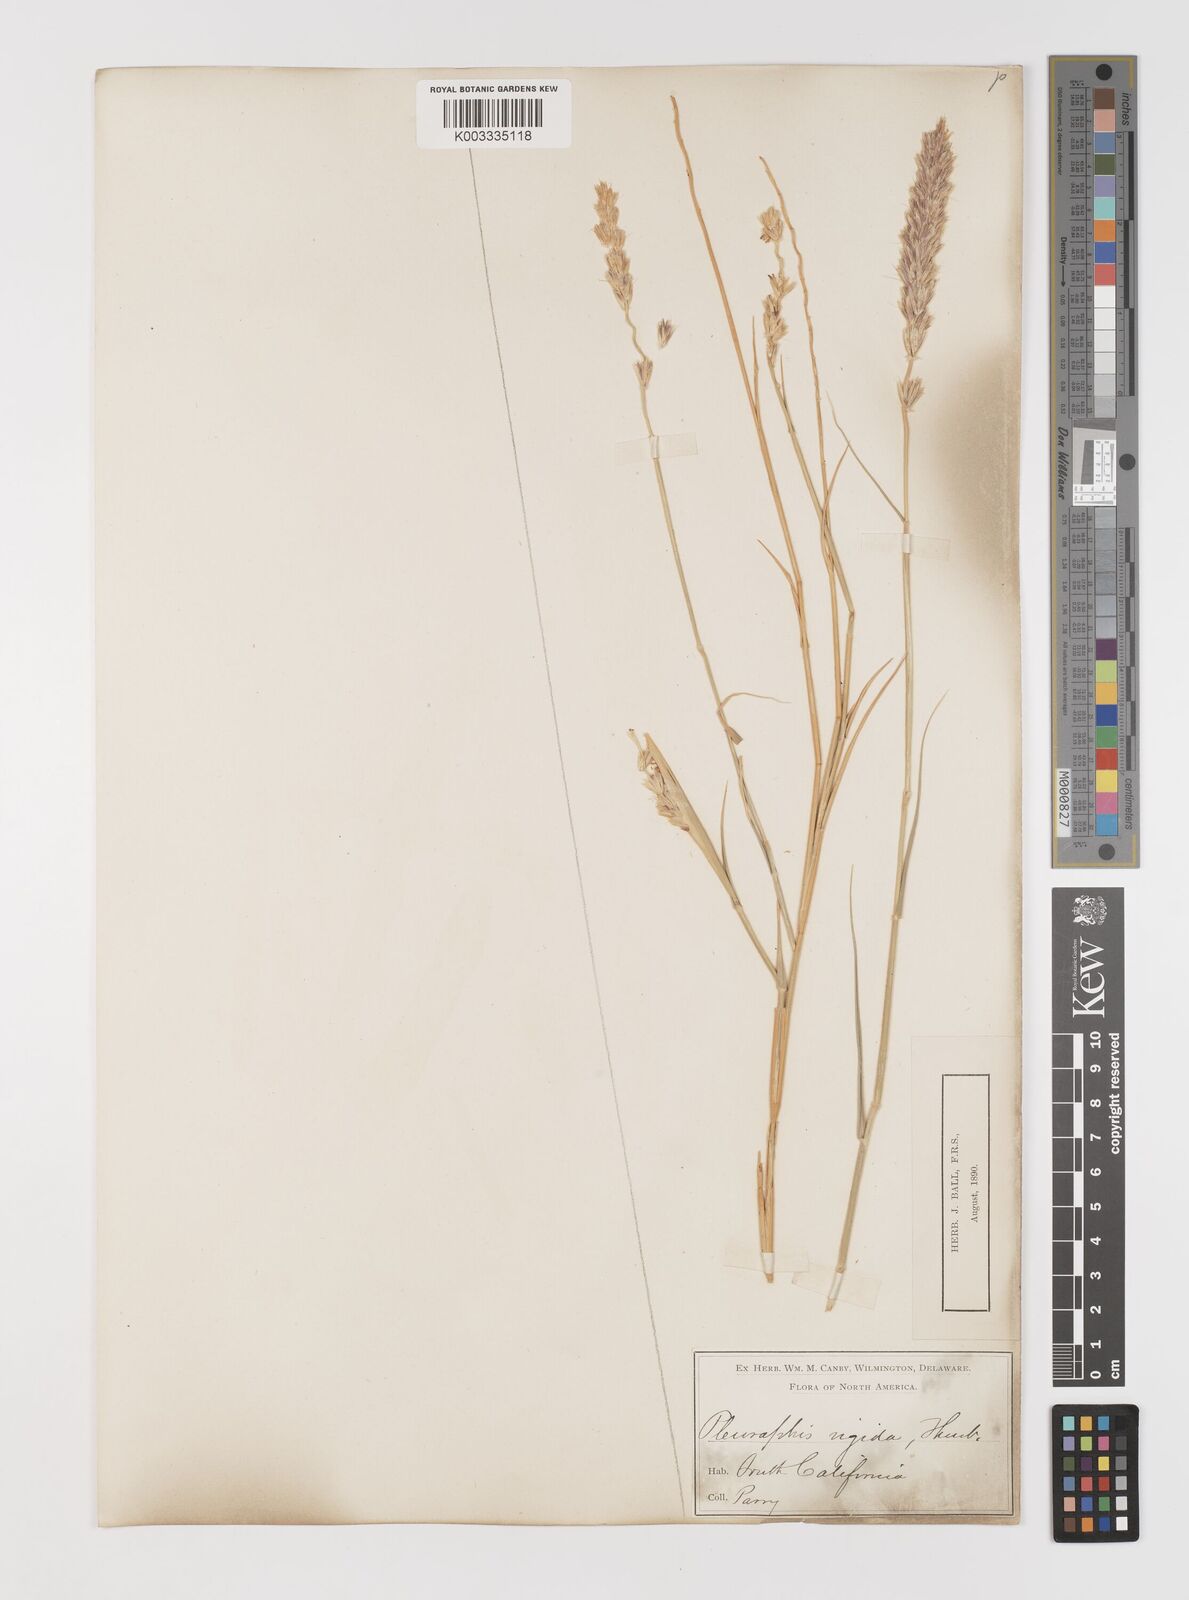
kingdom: Plantae
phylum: Tracheophyta
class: Liliopsida
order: Poales
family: Poaceae
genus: Hilaria
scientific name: Hilaria rigida
